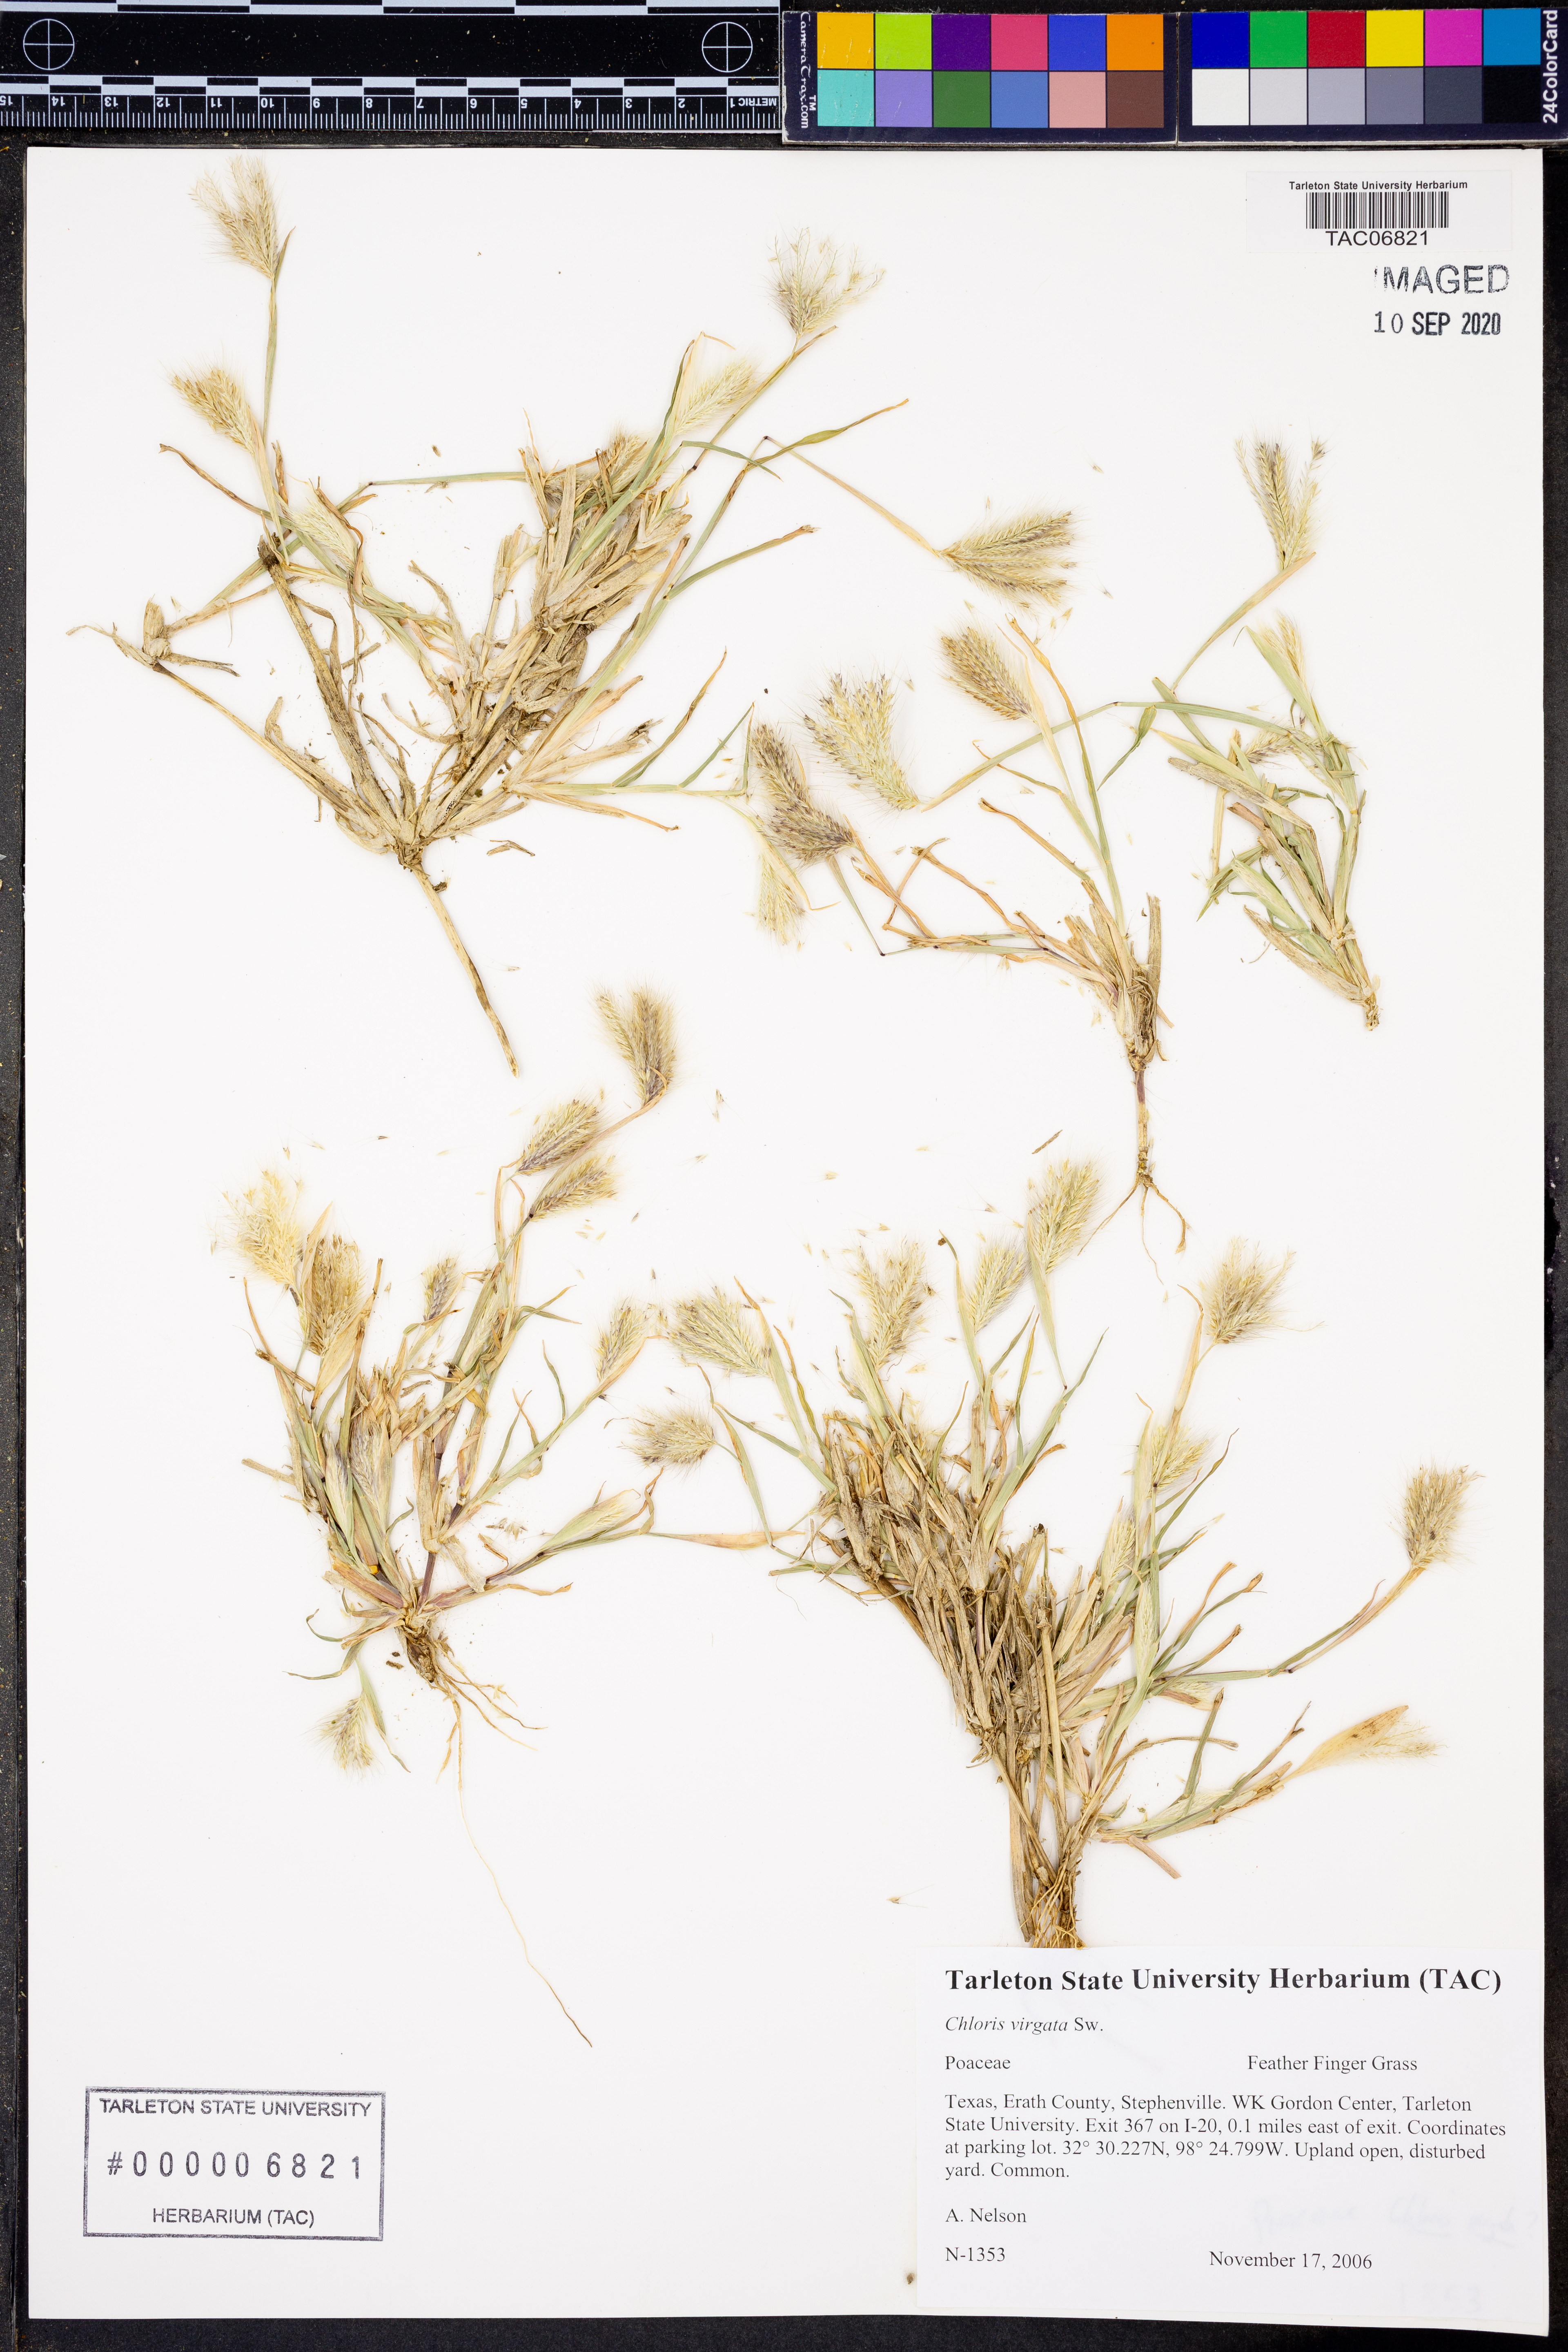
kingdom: Plantae
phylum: Tracheophyta
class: Liliopsida
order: Poales
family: Poaceae
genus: Chloris
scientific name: Chloris virgata
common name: Feathery rhodes-grass
